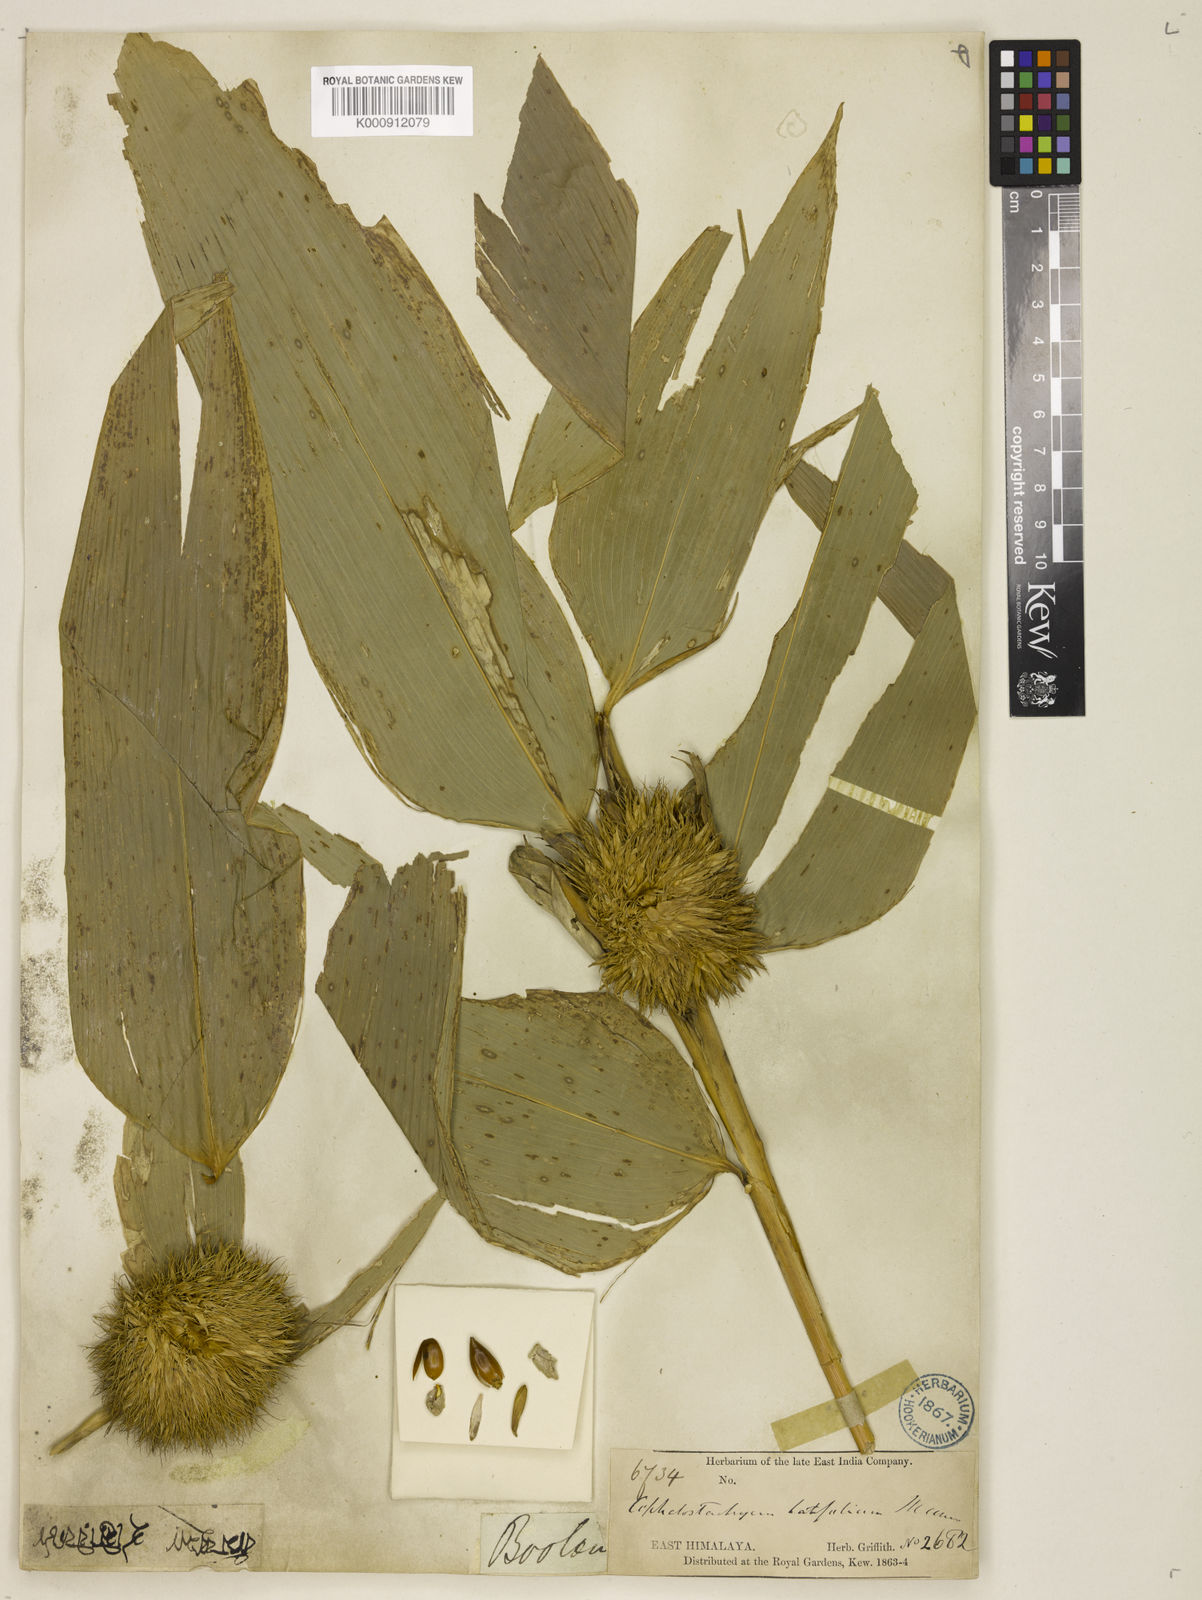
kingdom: Plantae
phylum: Tracheophyta
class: Liliopsida
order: Poales
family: Poaceae
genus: Cephalostachyum
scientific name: Cephalostachyum latifolium
